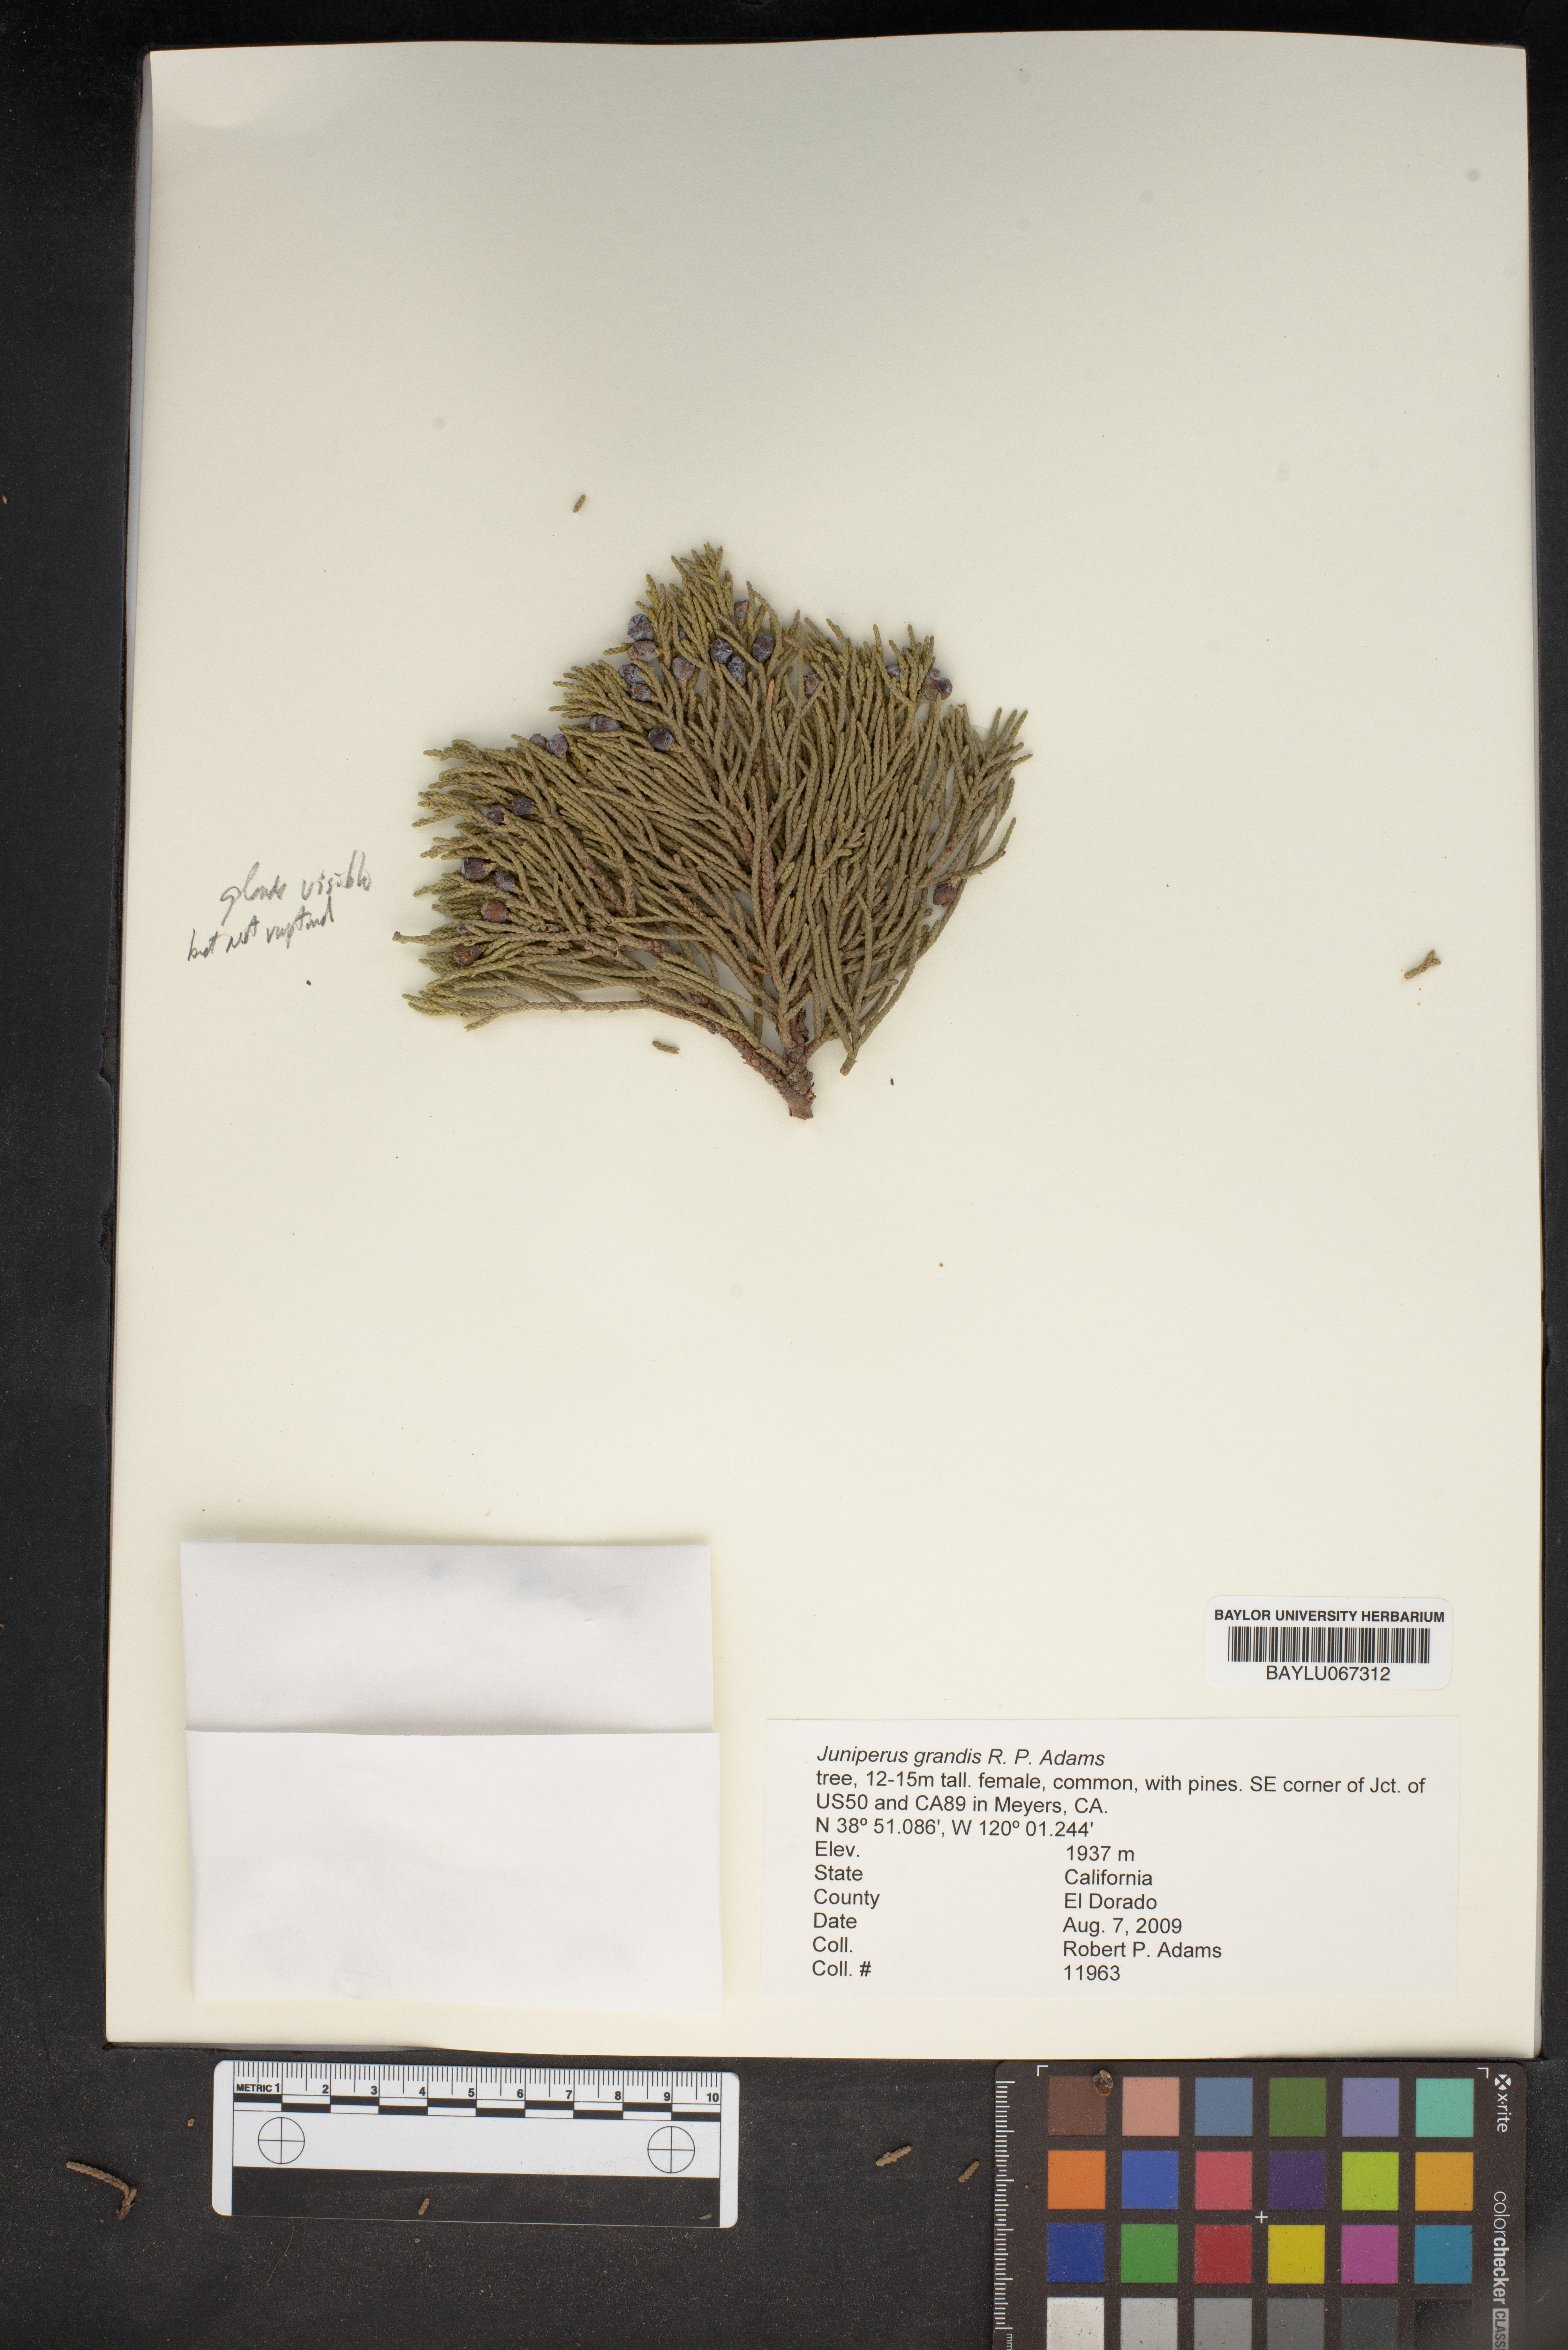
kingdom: Plantae
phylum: Tracheophyta
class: Pinopsida
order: Pinales
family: Cupressaceae
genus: Juniperus
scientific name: Juniperus occidentalis
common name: Western juniper
